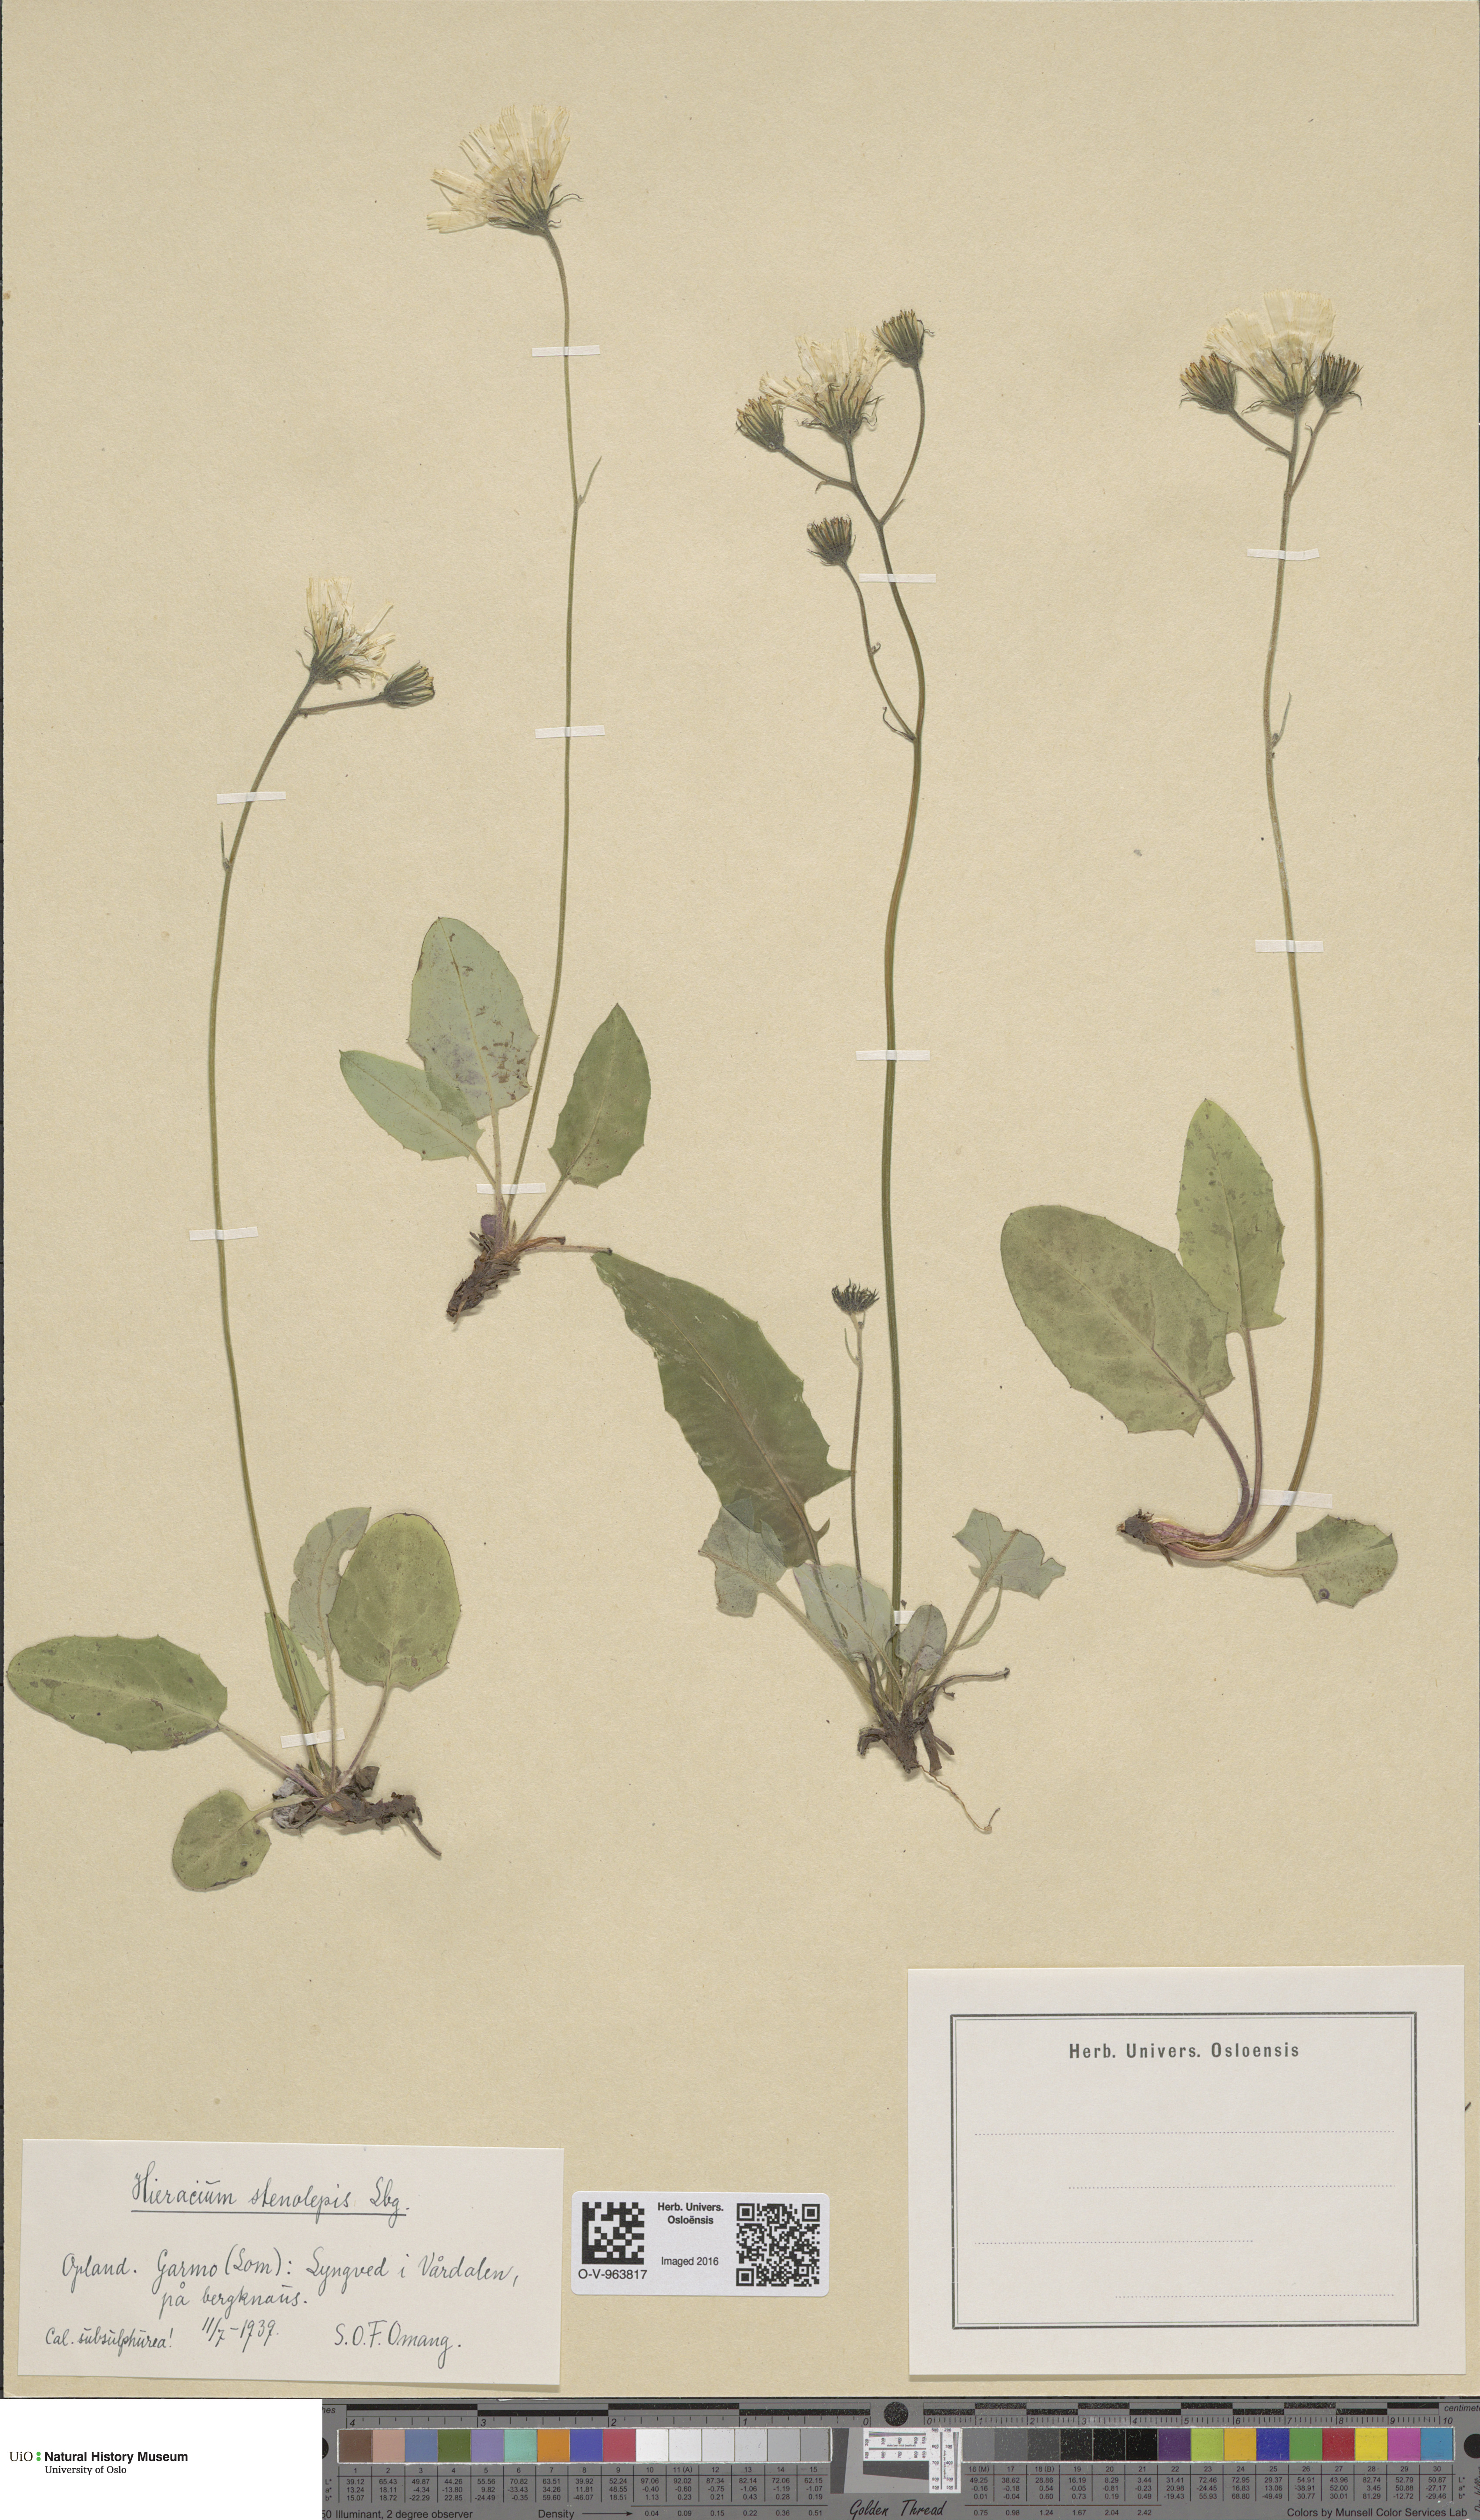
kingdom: Plantae
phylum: Tracheophyta
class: Magnoliopsida
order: Asterales
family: Asteraceae
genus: Hieracium
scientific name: Hieracium bifidum
